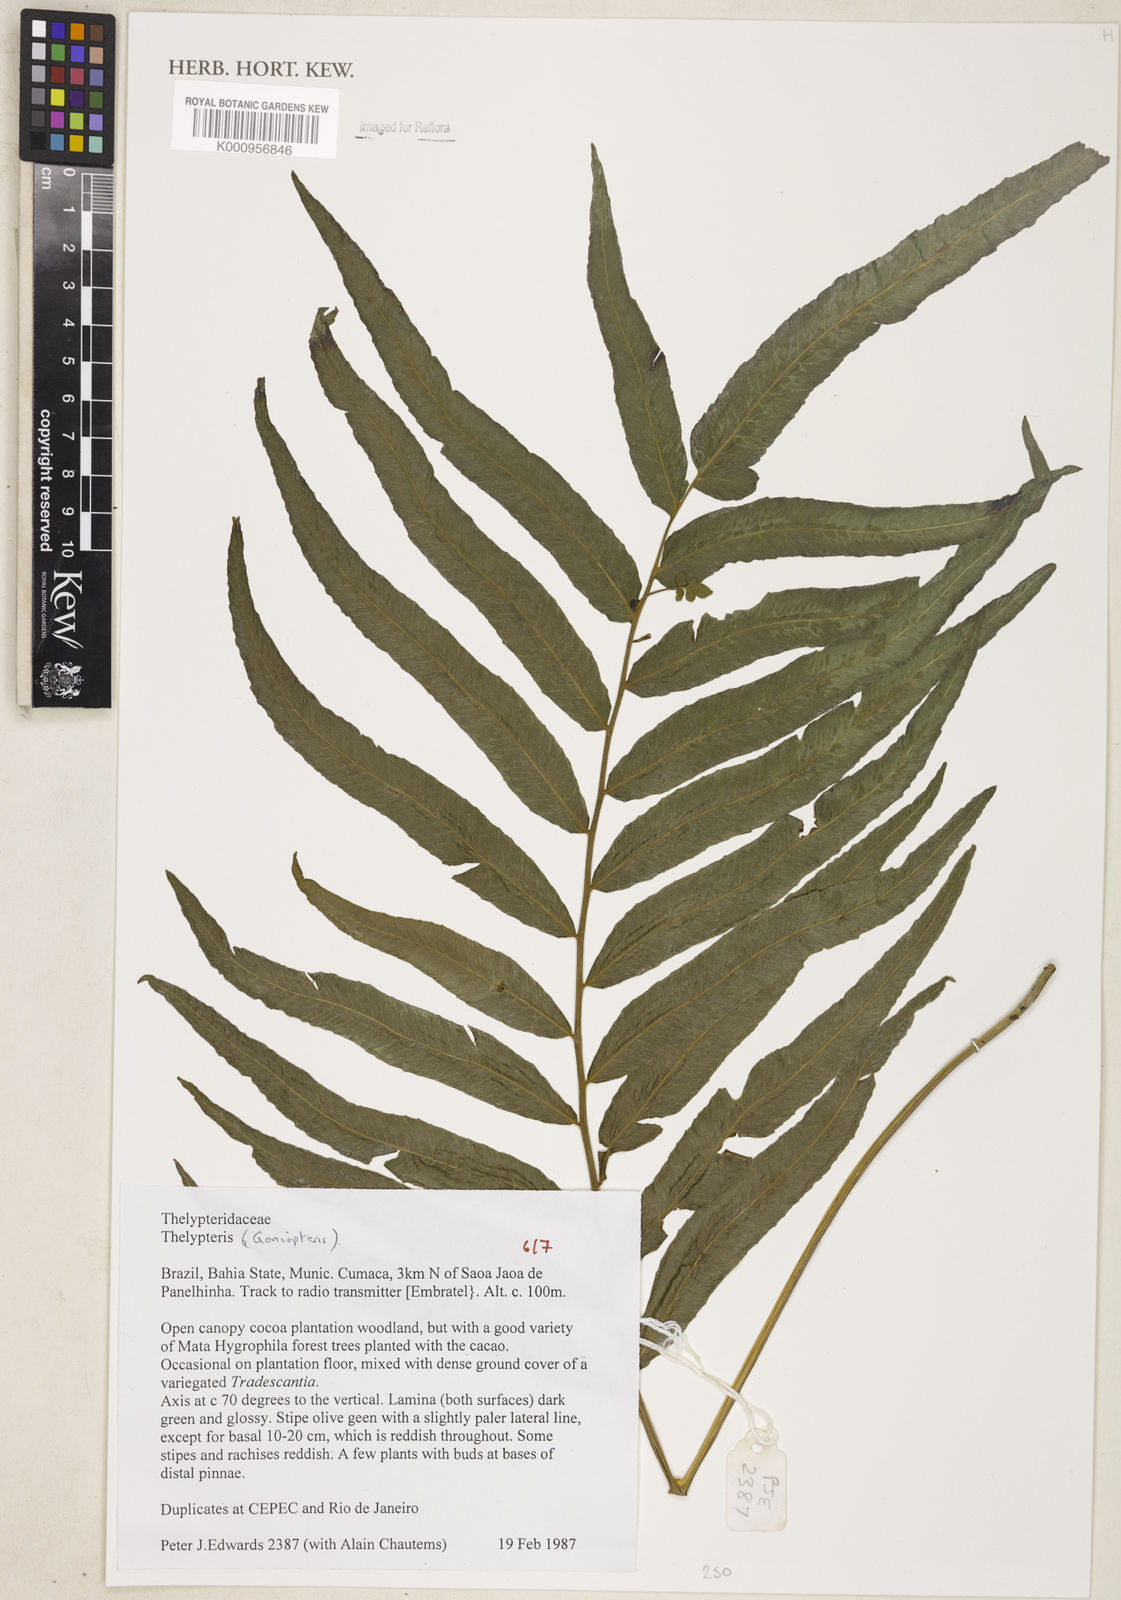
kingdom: Plantae
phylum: Tracheophyta
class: Polypodiopsida
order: Polypodiales
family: Thelypteridaceae
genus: Goniopteris
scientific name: Goniopteris
